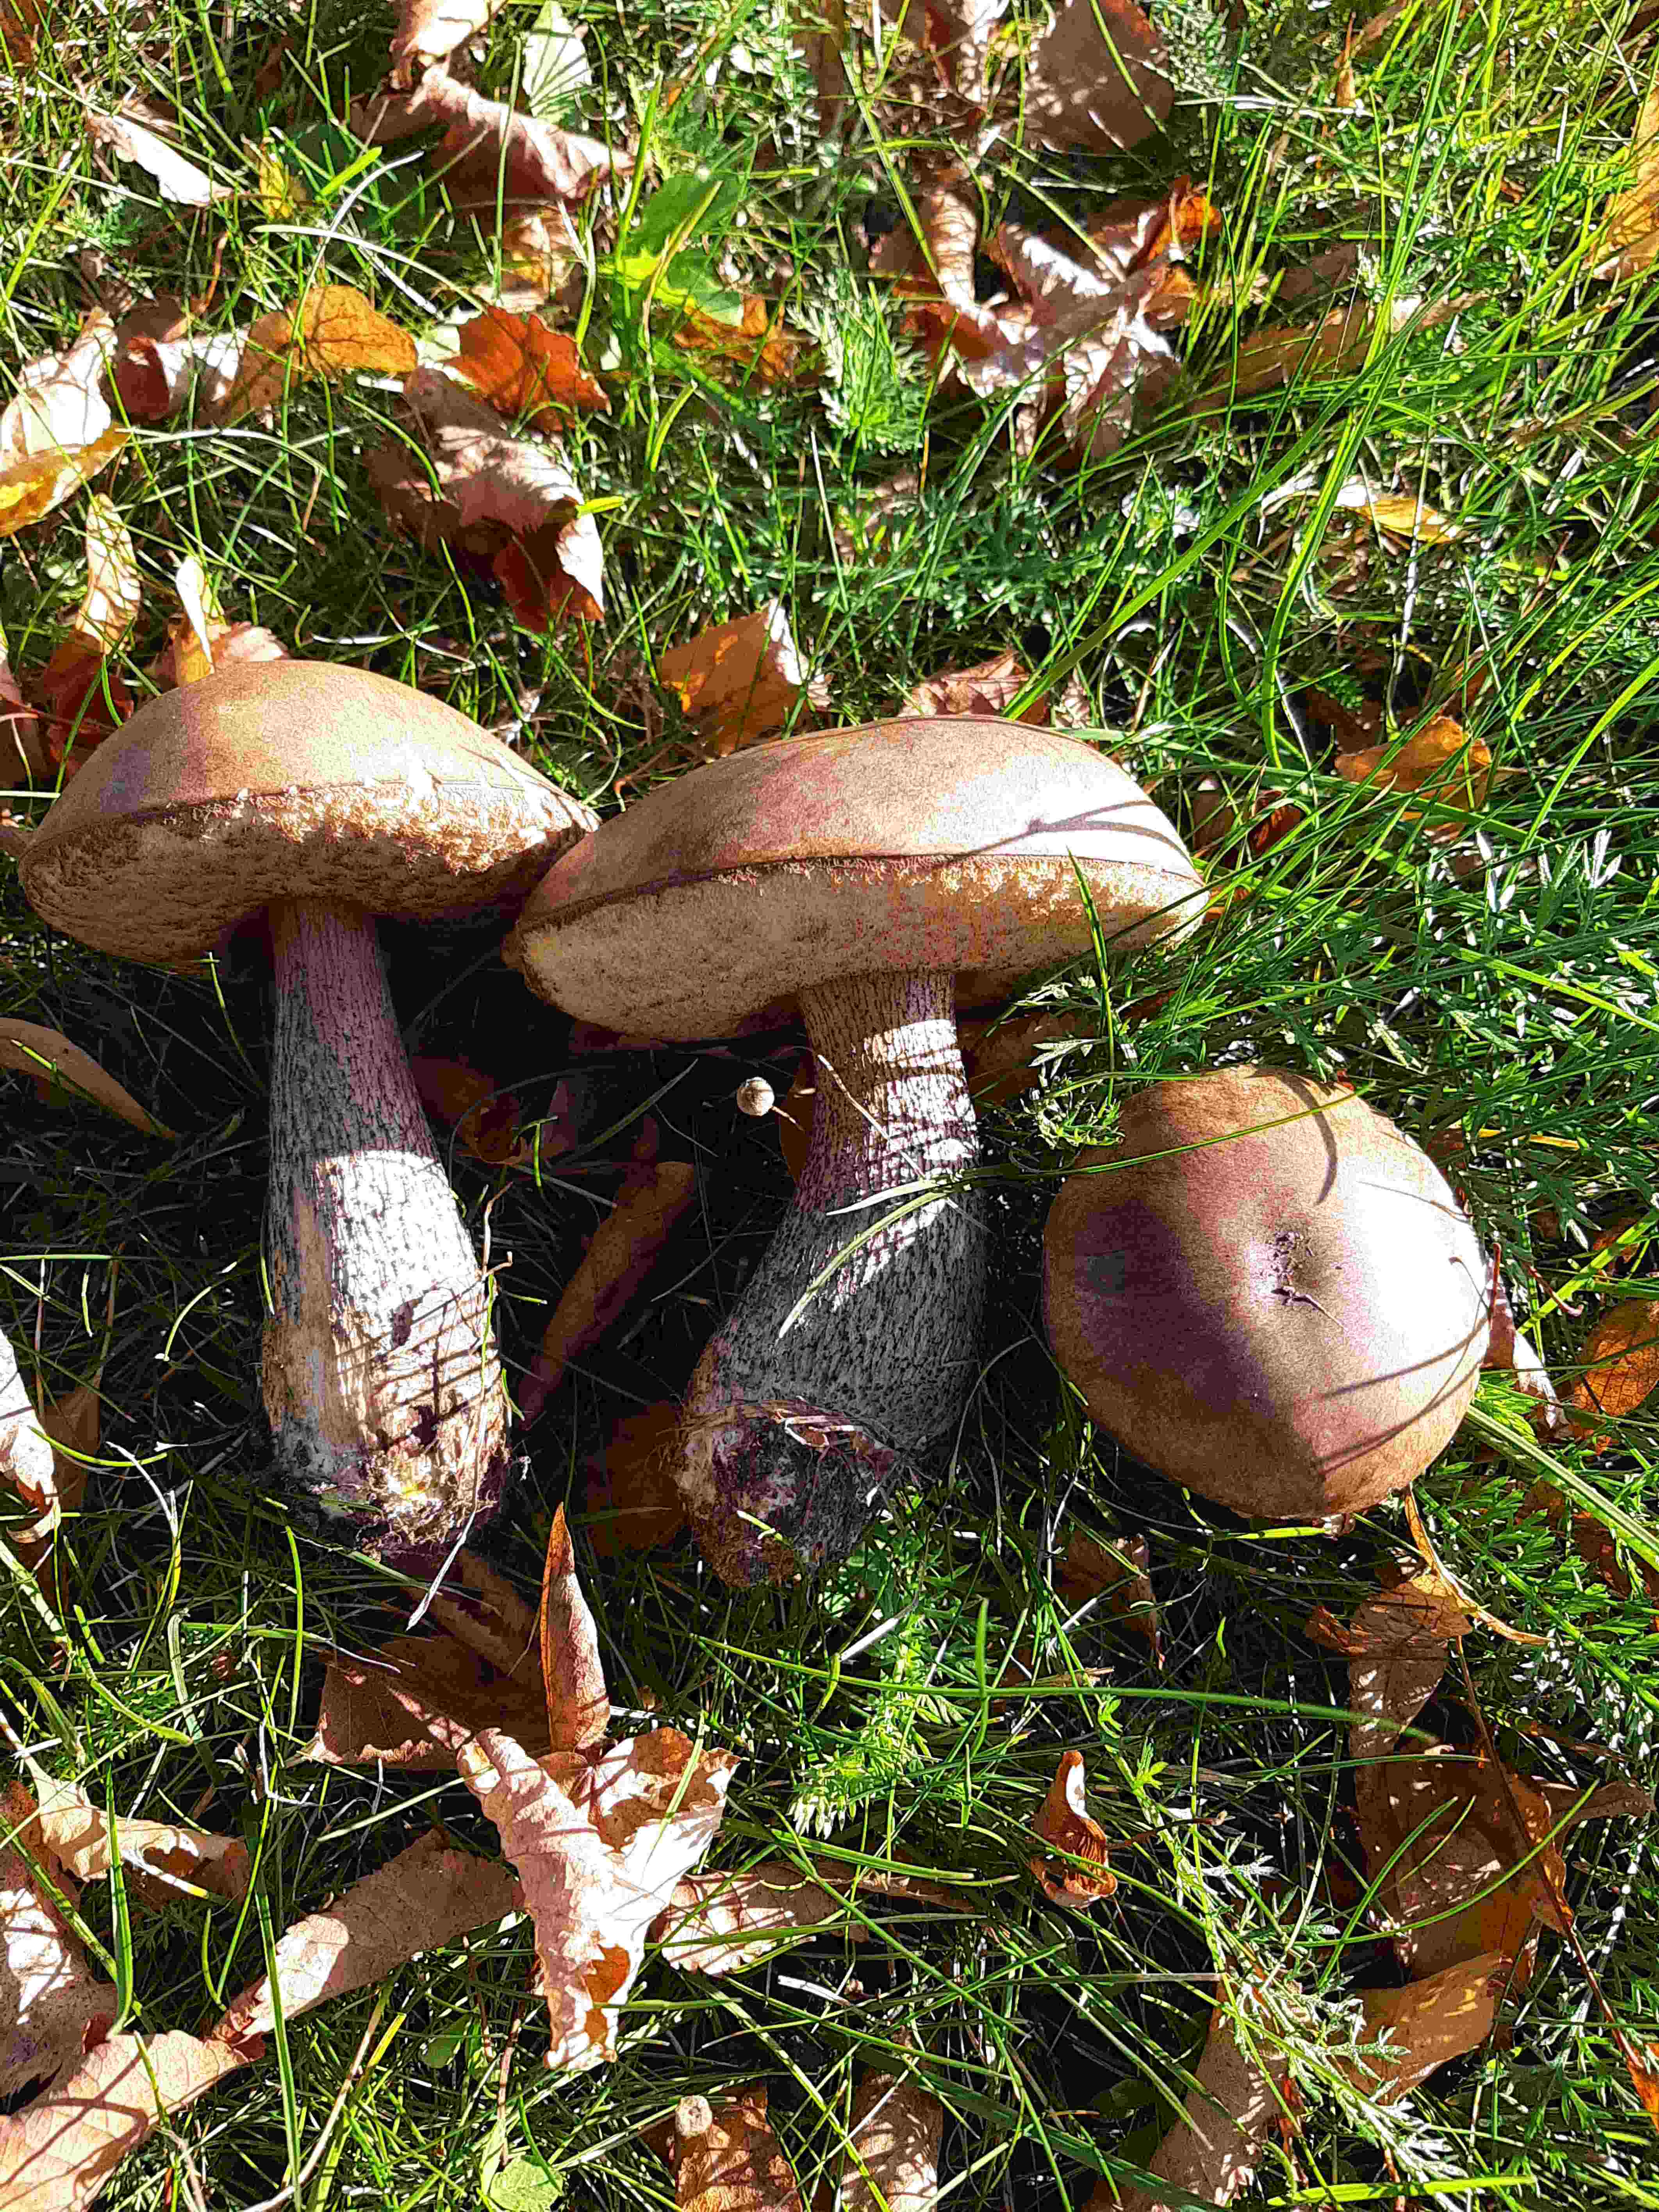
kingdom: Fungi
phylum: Basidiomycota
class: Agaricomycetes
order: Boletales
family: Boletaceae
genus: Leccinum
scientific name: Leccinum scabrum
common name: brun skælrørhat
